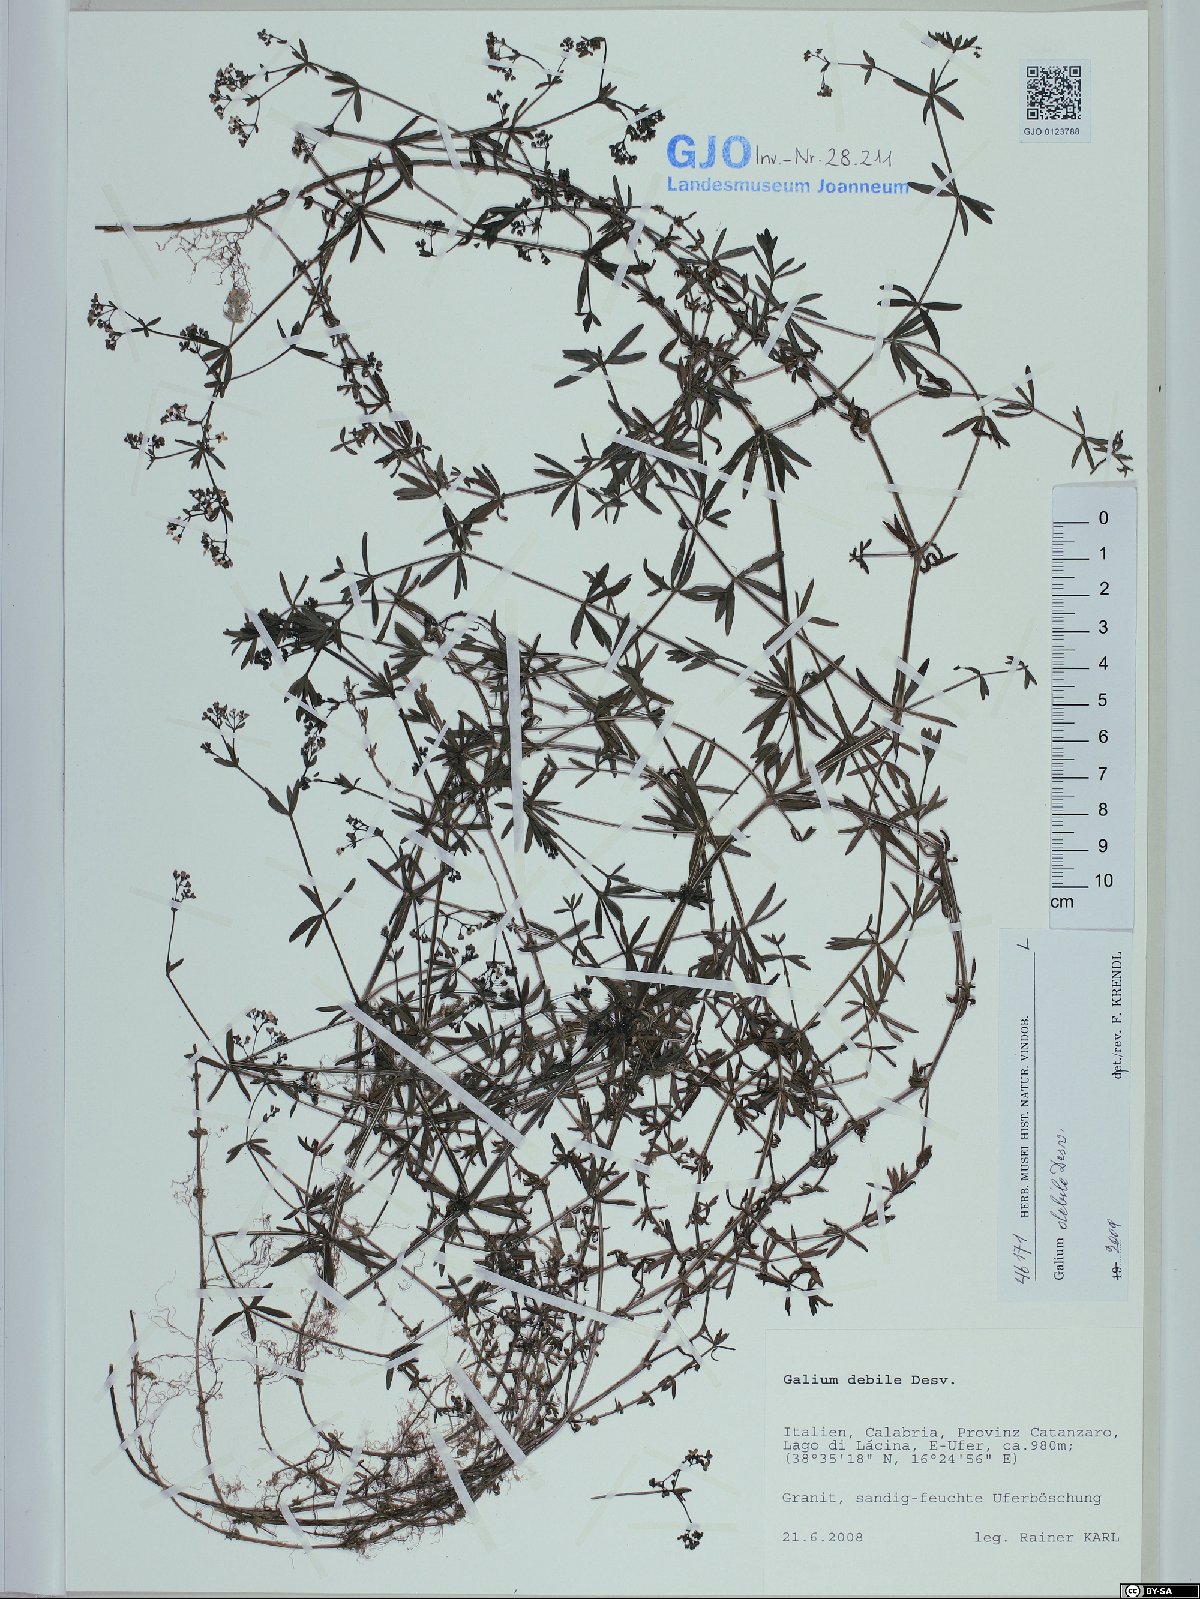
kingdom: Plantae
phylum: Tracheophyta
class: Magnoliopsida
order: Gentianales
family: Rubiaceae
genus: Galium
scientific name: Galium debile
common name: Slender marsh-bedstraw
